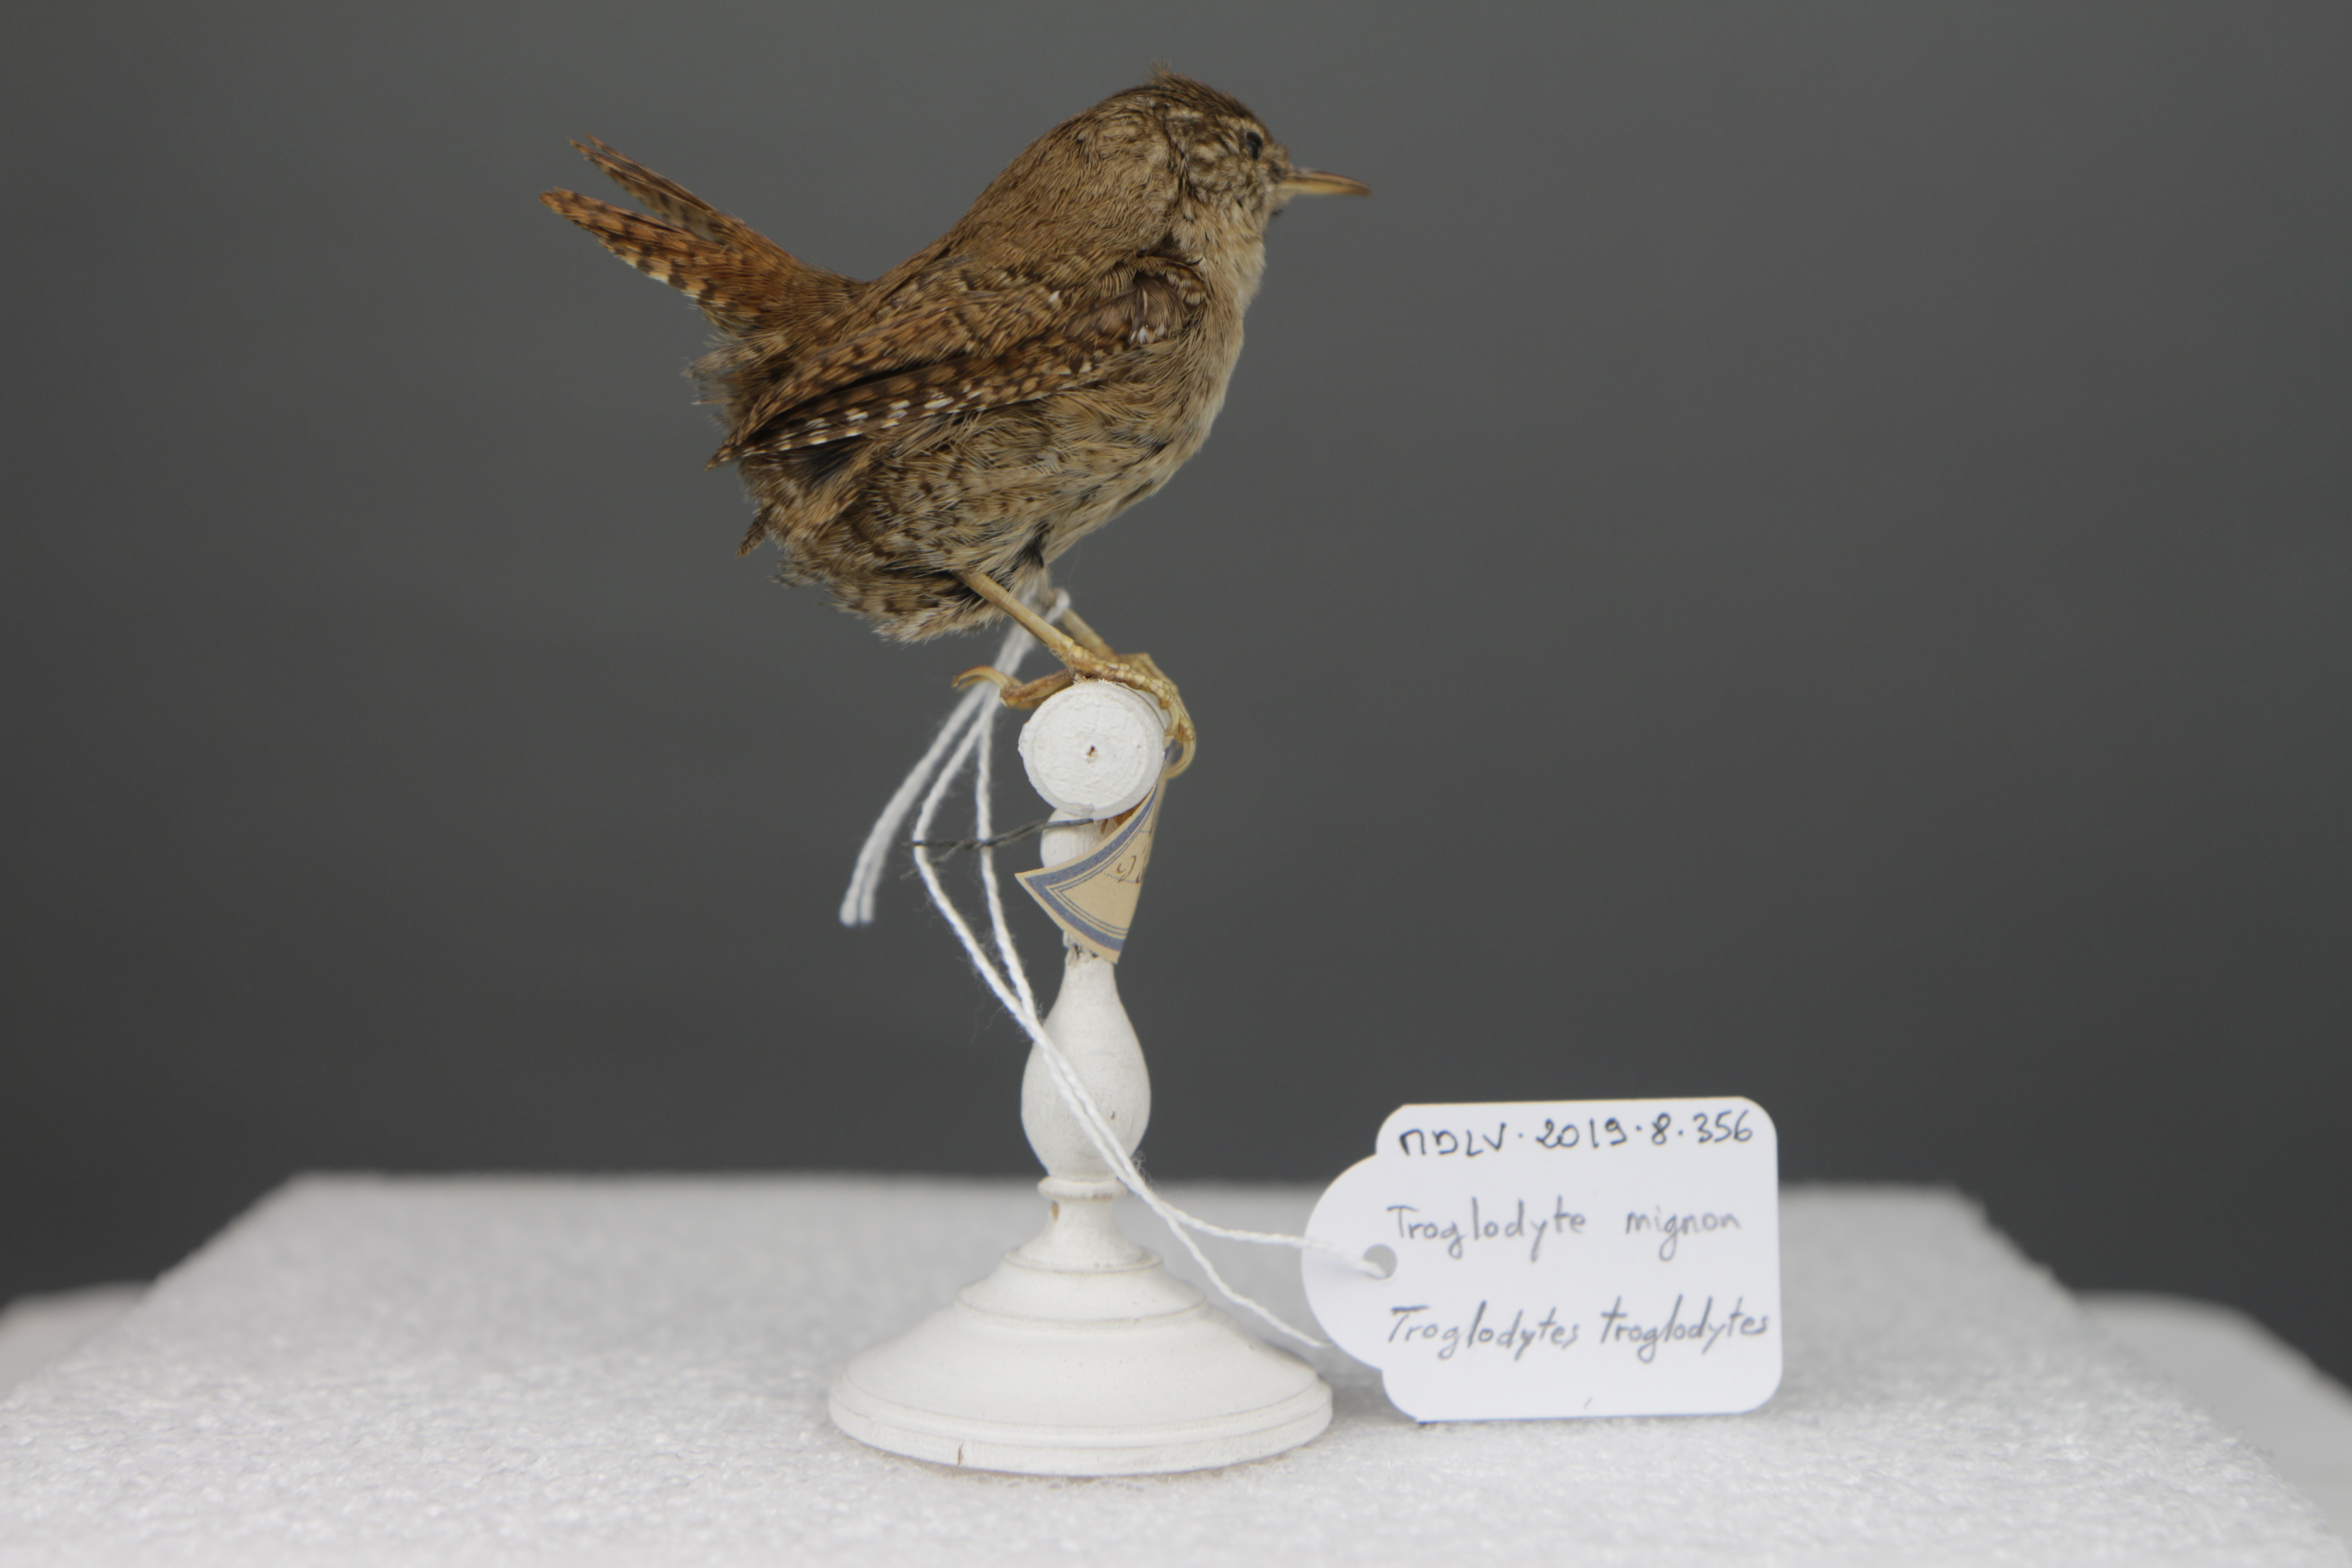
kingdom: Animalia
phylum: Chordata
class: Aves
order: Passeriformes
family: Troglodytidae
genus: Troglodytes
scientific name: Troglodytes troglodytes
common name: Eurasian wren
